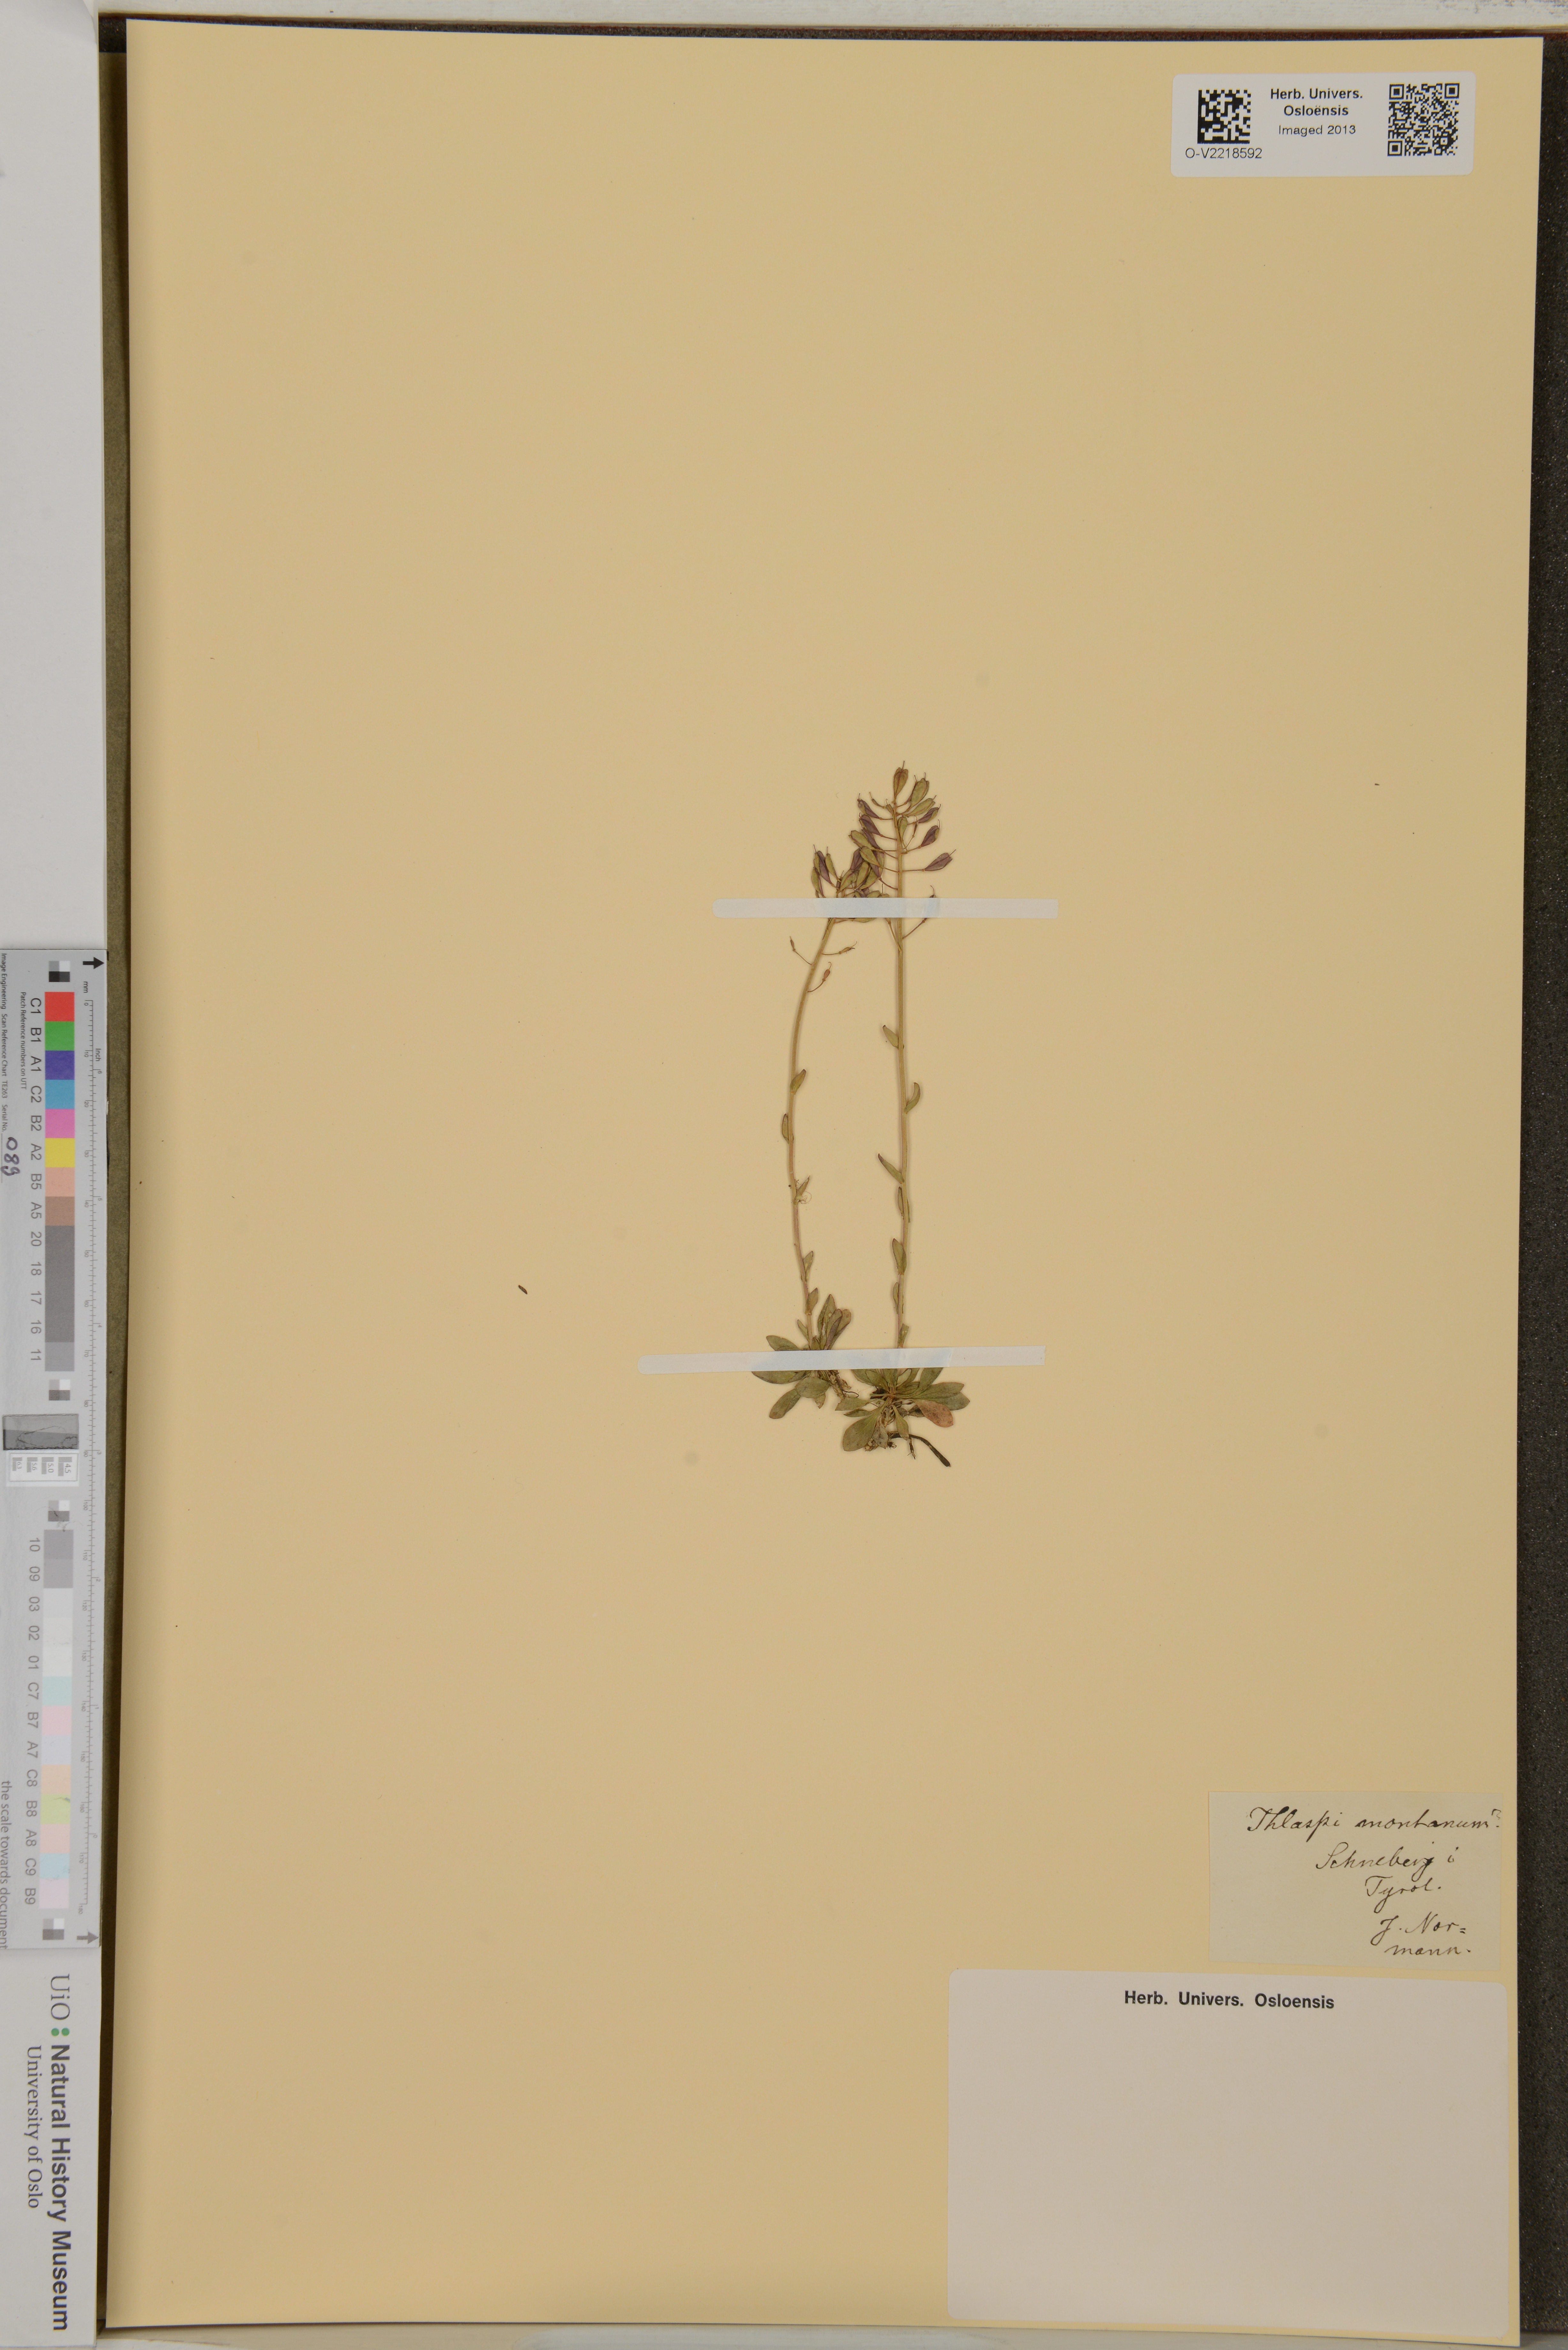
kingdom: Plantae
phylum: Tracheophyta
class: Magnoliopsida
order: Brassicales
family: Brassicaceae
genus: Noccaea
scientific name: Noccaea montana
